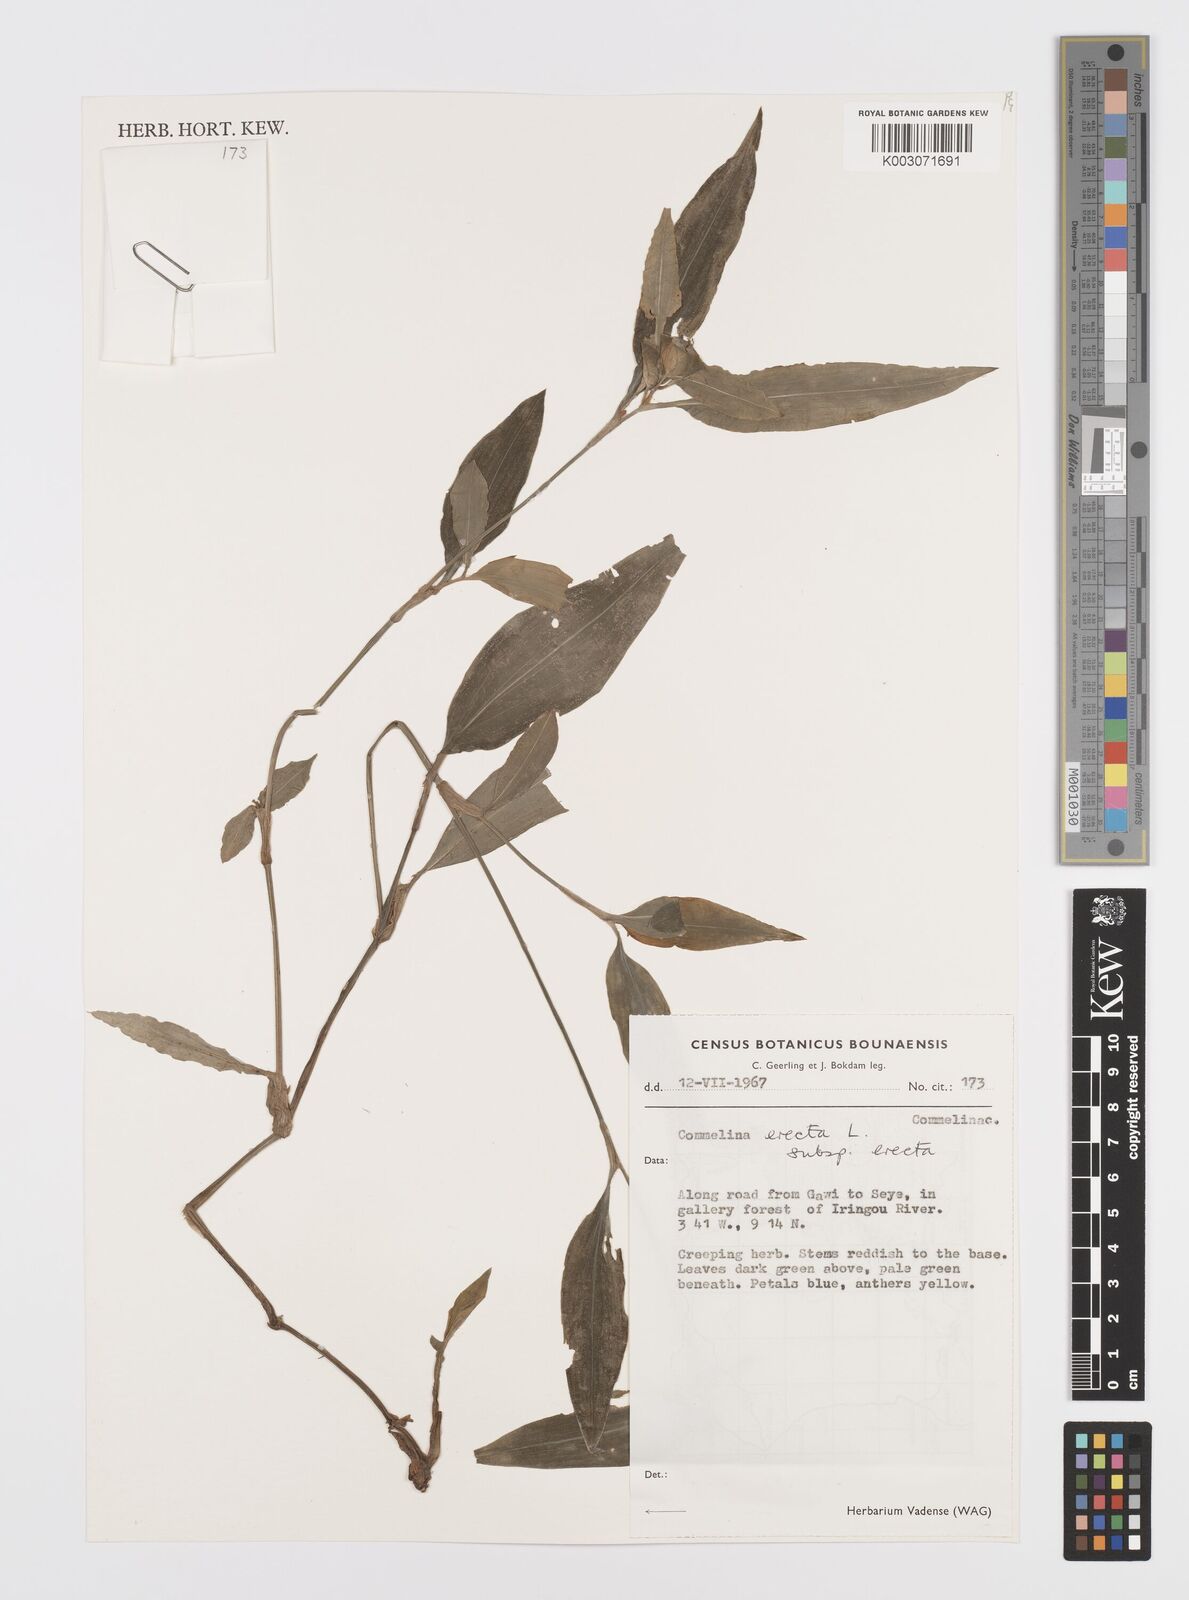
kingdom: Plantae
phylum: Tracheophyta
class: Liliopsida
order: Commelinales
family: Commelinaceae
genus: Commelina
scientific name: Commelina erecta
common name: Blousel blommetjie
